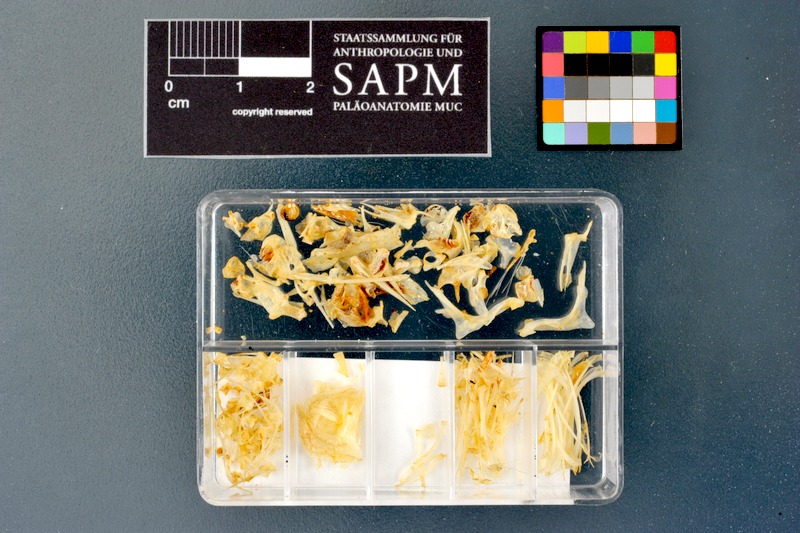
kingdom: Animalia
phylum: Chordata
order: Cypriniformes
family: Cyprinidae
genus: Acanthobrama
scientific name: Acanthobrama marmid
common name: Mesopotamian bream
